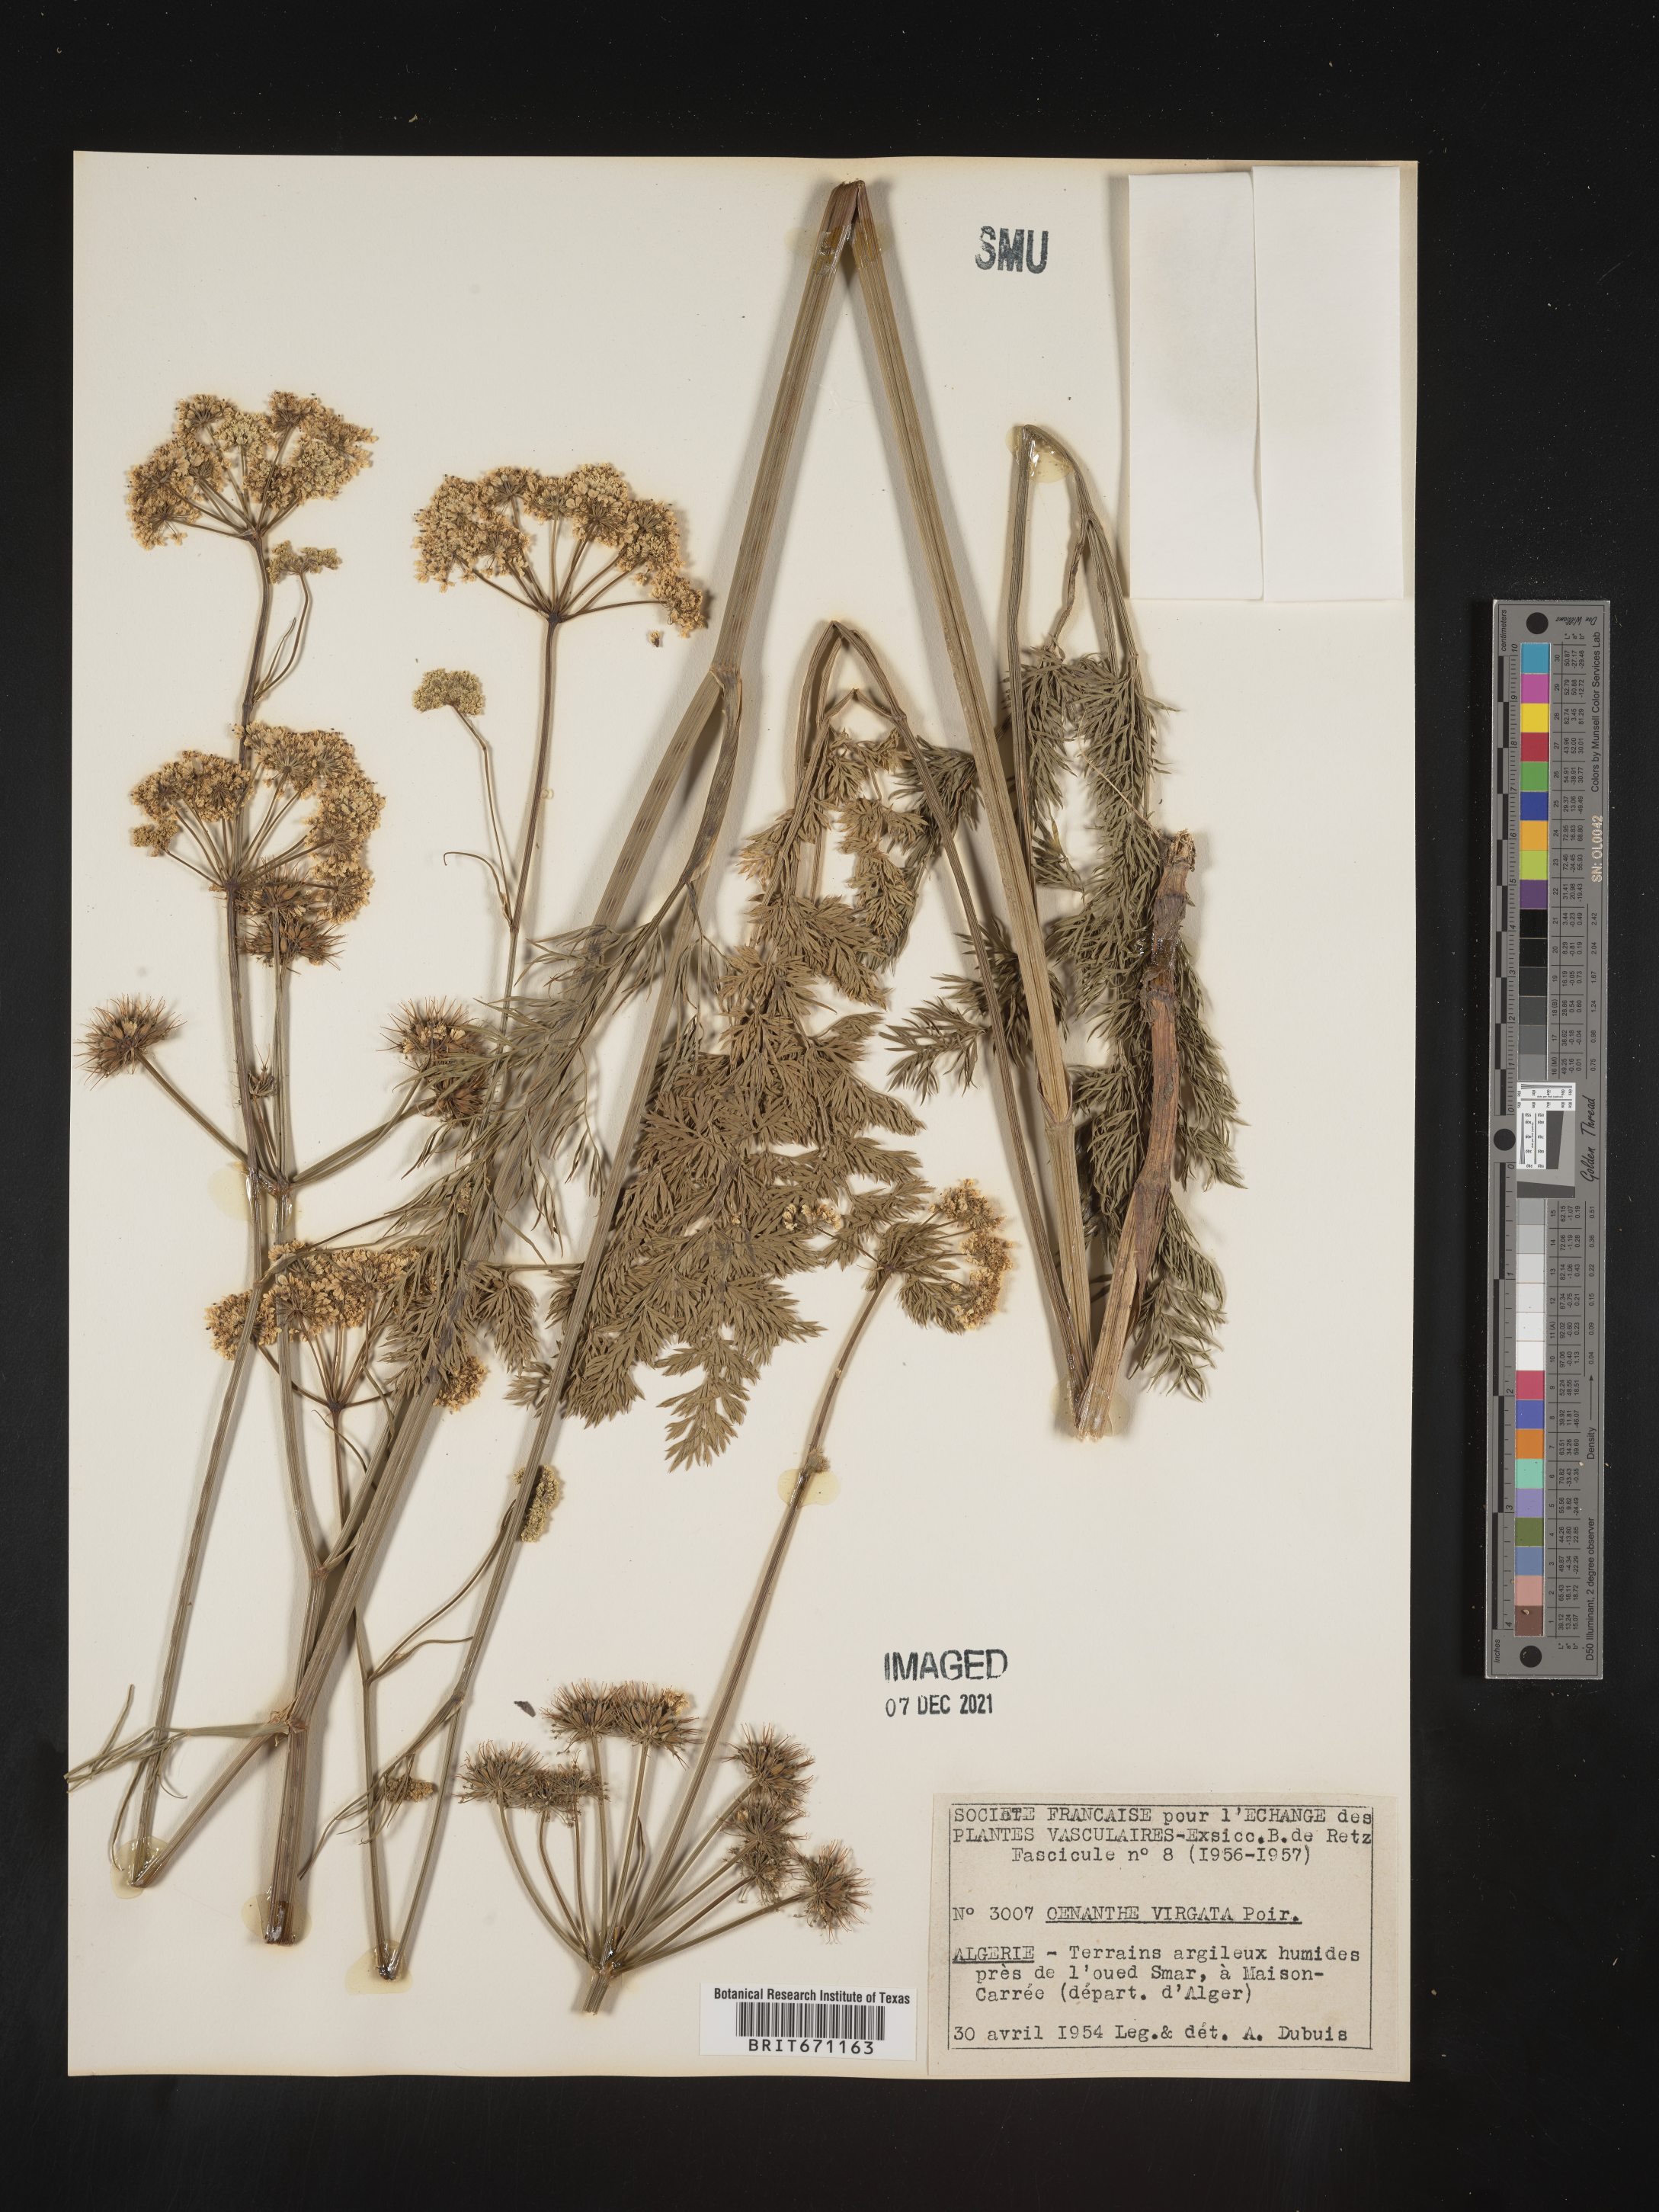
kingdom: Plantae
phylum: Tracheophyta
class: Magnoliopsida
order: Apiales
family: Apiaceae
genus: Oenanthe
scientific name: Oenanthe
